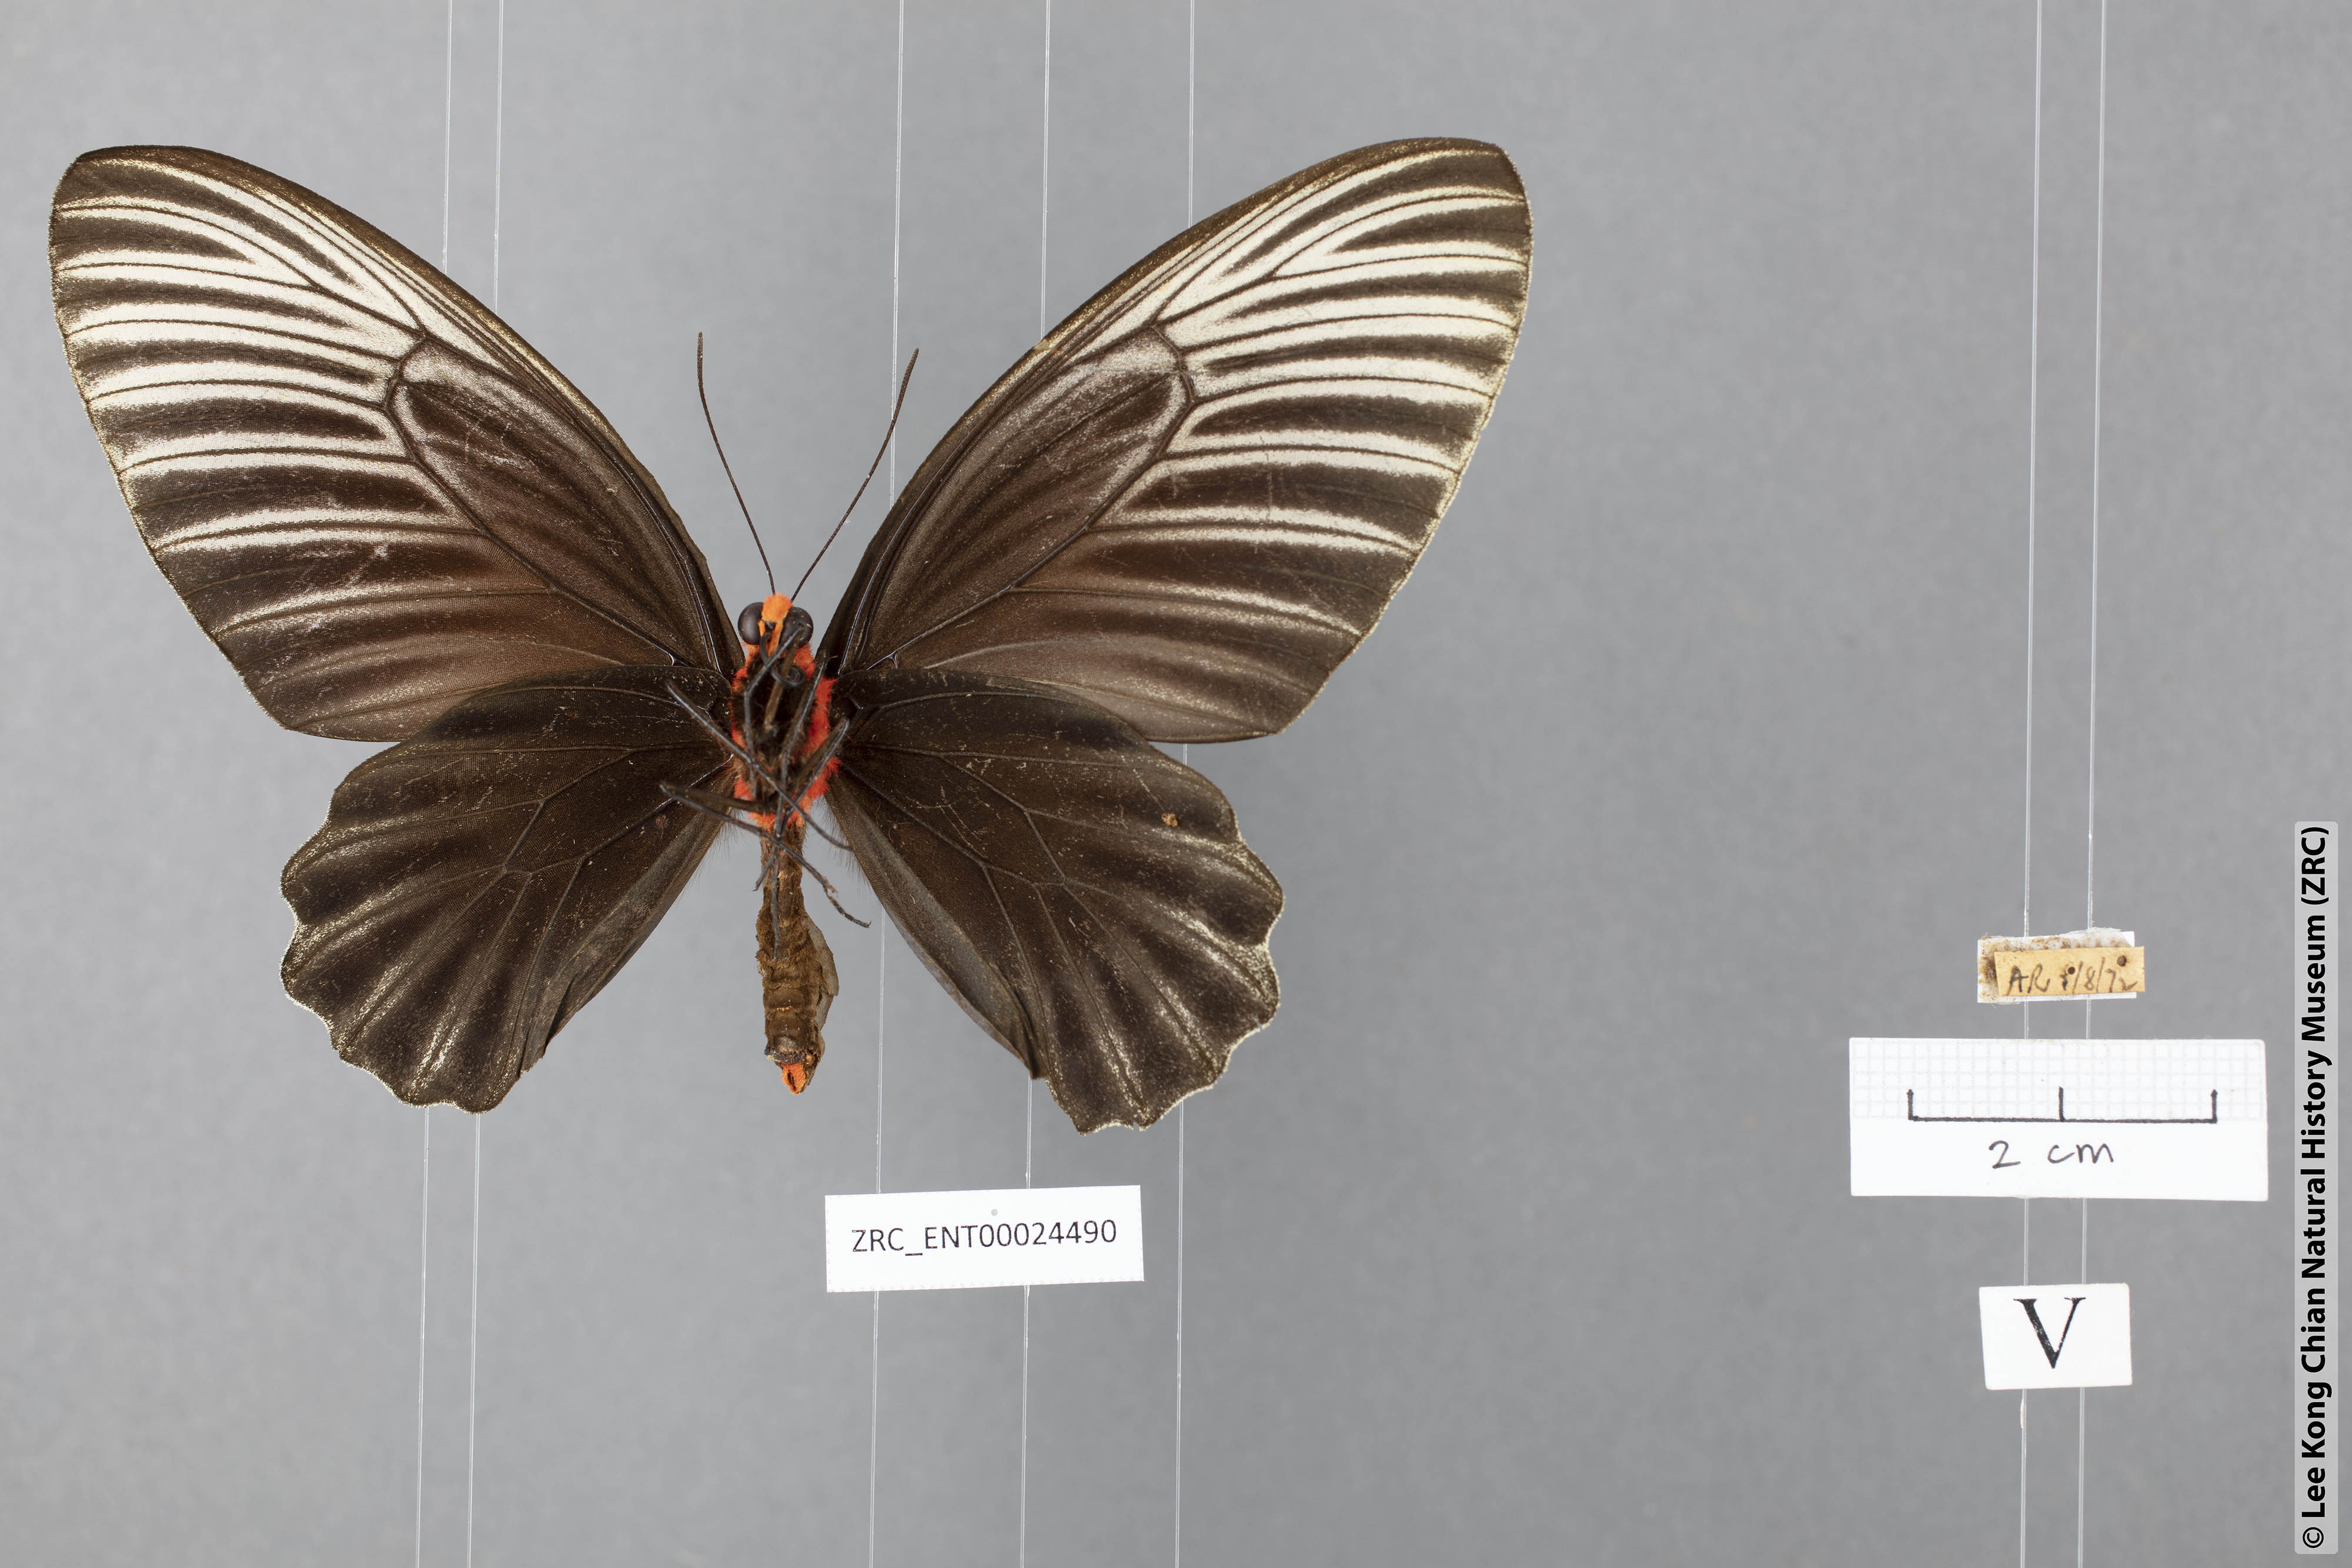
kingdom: Animalia
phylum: Arthropoda
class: Insecta
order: Lepidoptera
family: Papilionidae
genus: Atrophaneura
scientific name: Atrophaneura nox
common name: Malayan batwing
